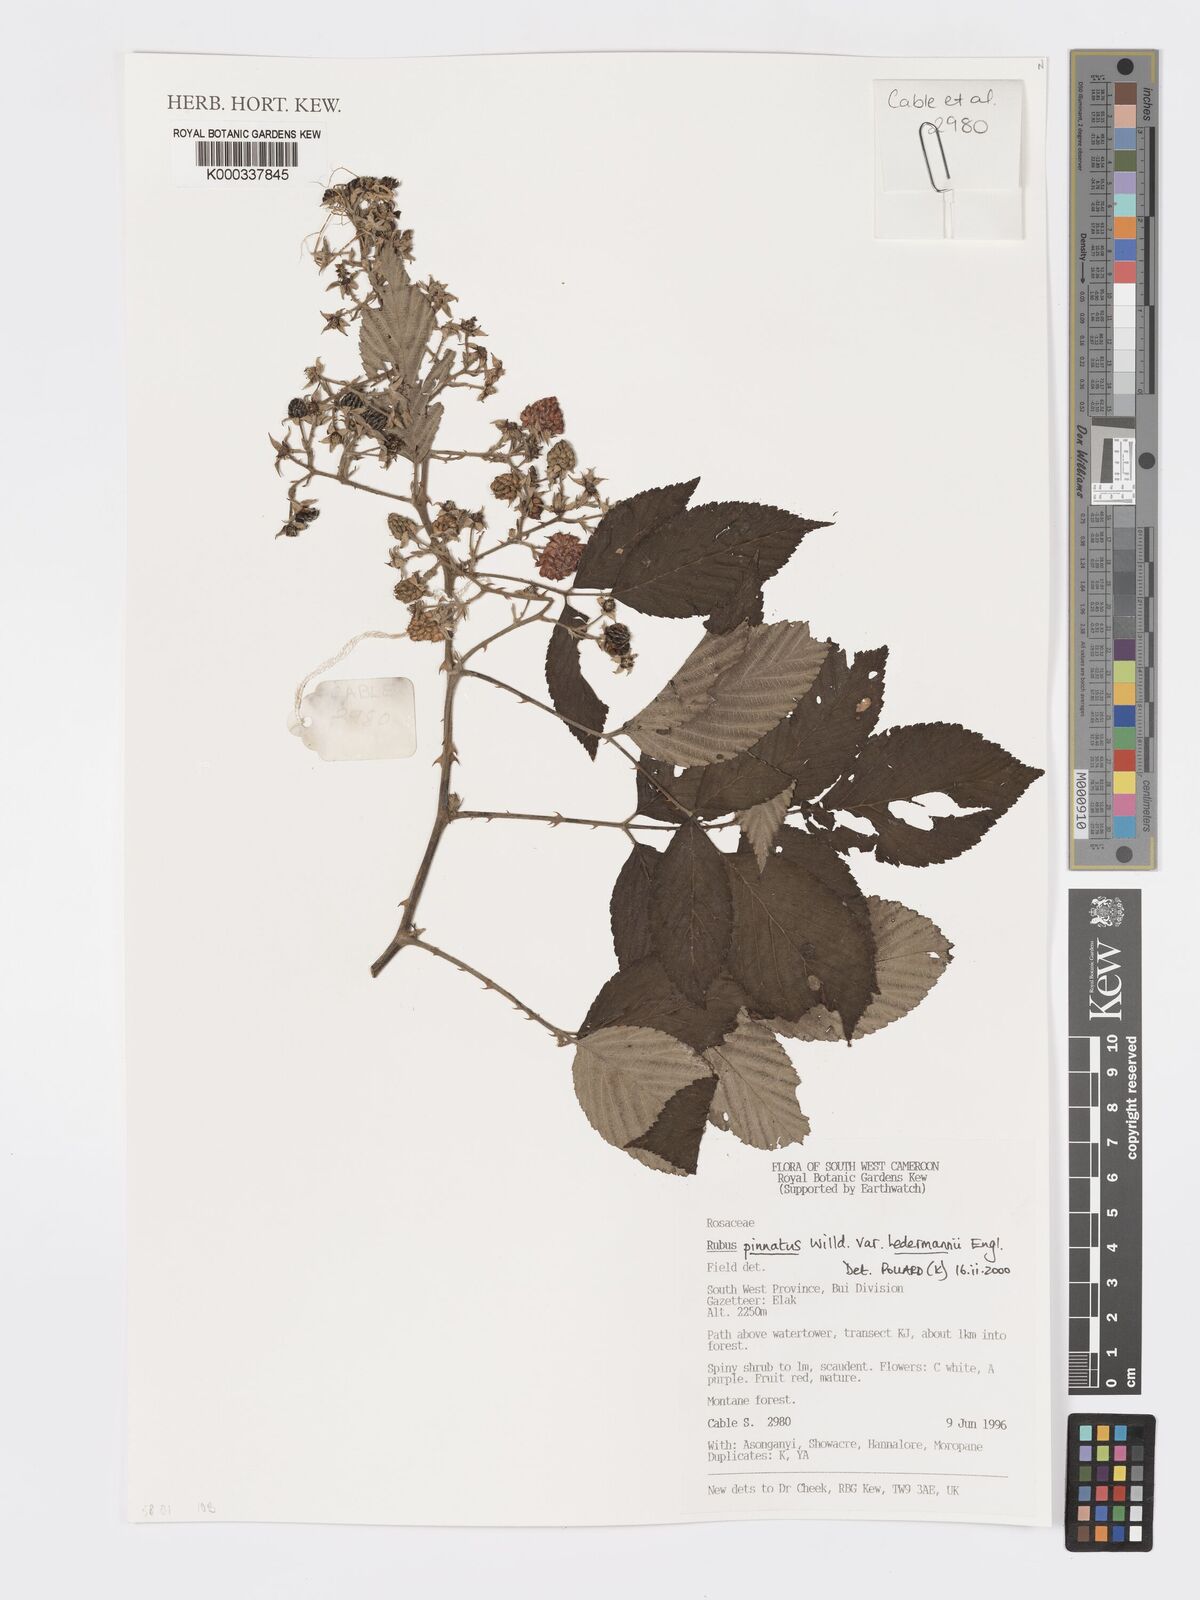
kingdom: Plantae
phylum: Tracheophyta
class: Magnoliopsida
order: Rosales
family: Rosaceae
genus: Rubus
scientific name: Rubus pinnatus
